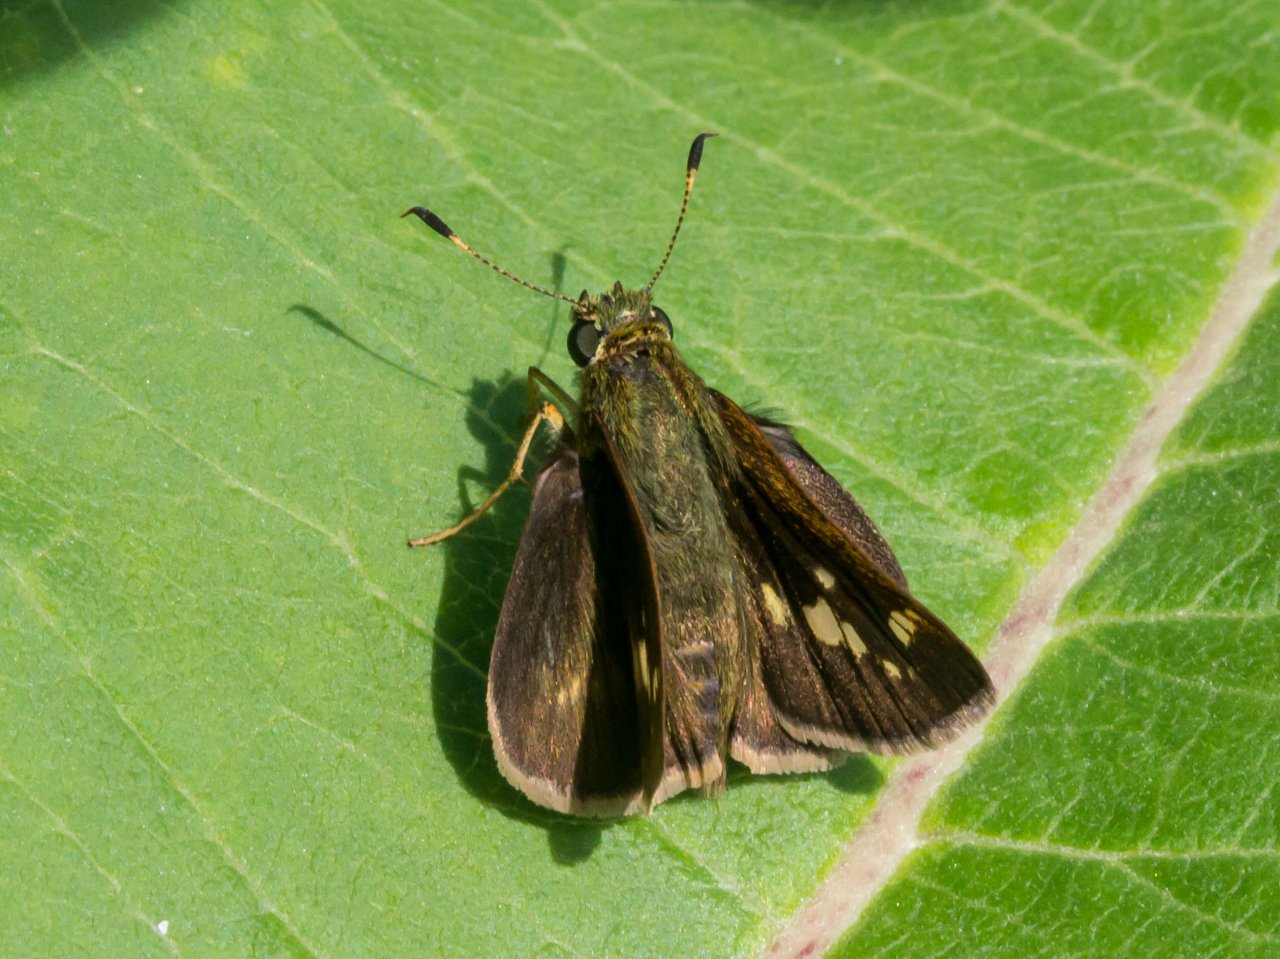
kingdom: Animalia
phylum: Arthropoda
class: Insecta
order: Lepidoptera
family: Hesperiidae
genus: Vernia
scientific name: Vernia verna
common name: Little Glassywing
